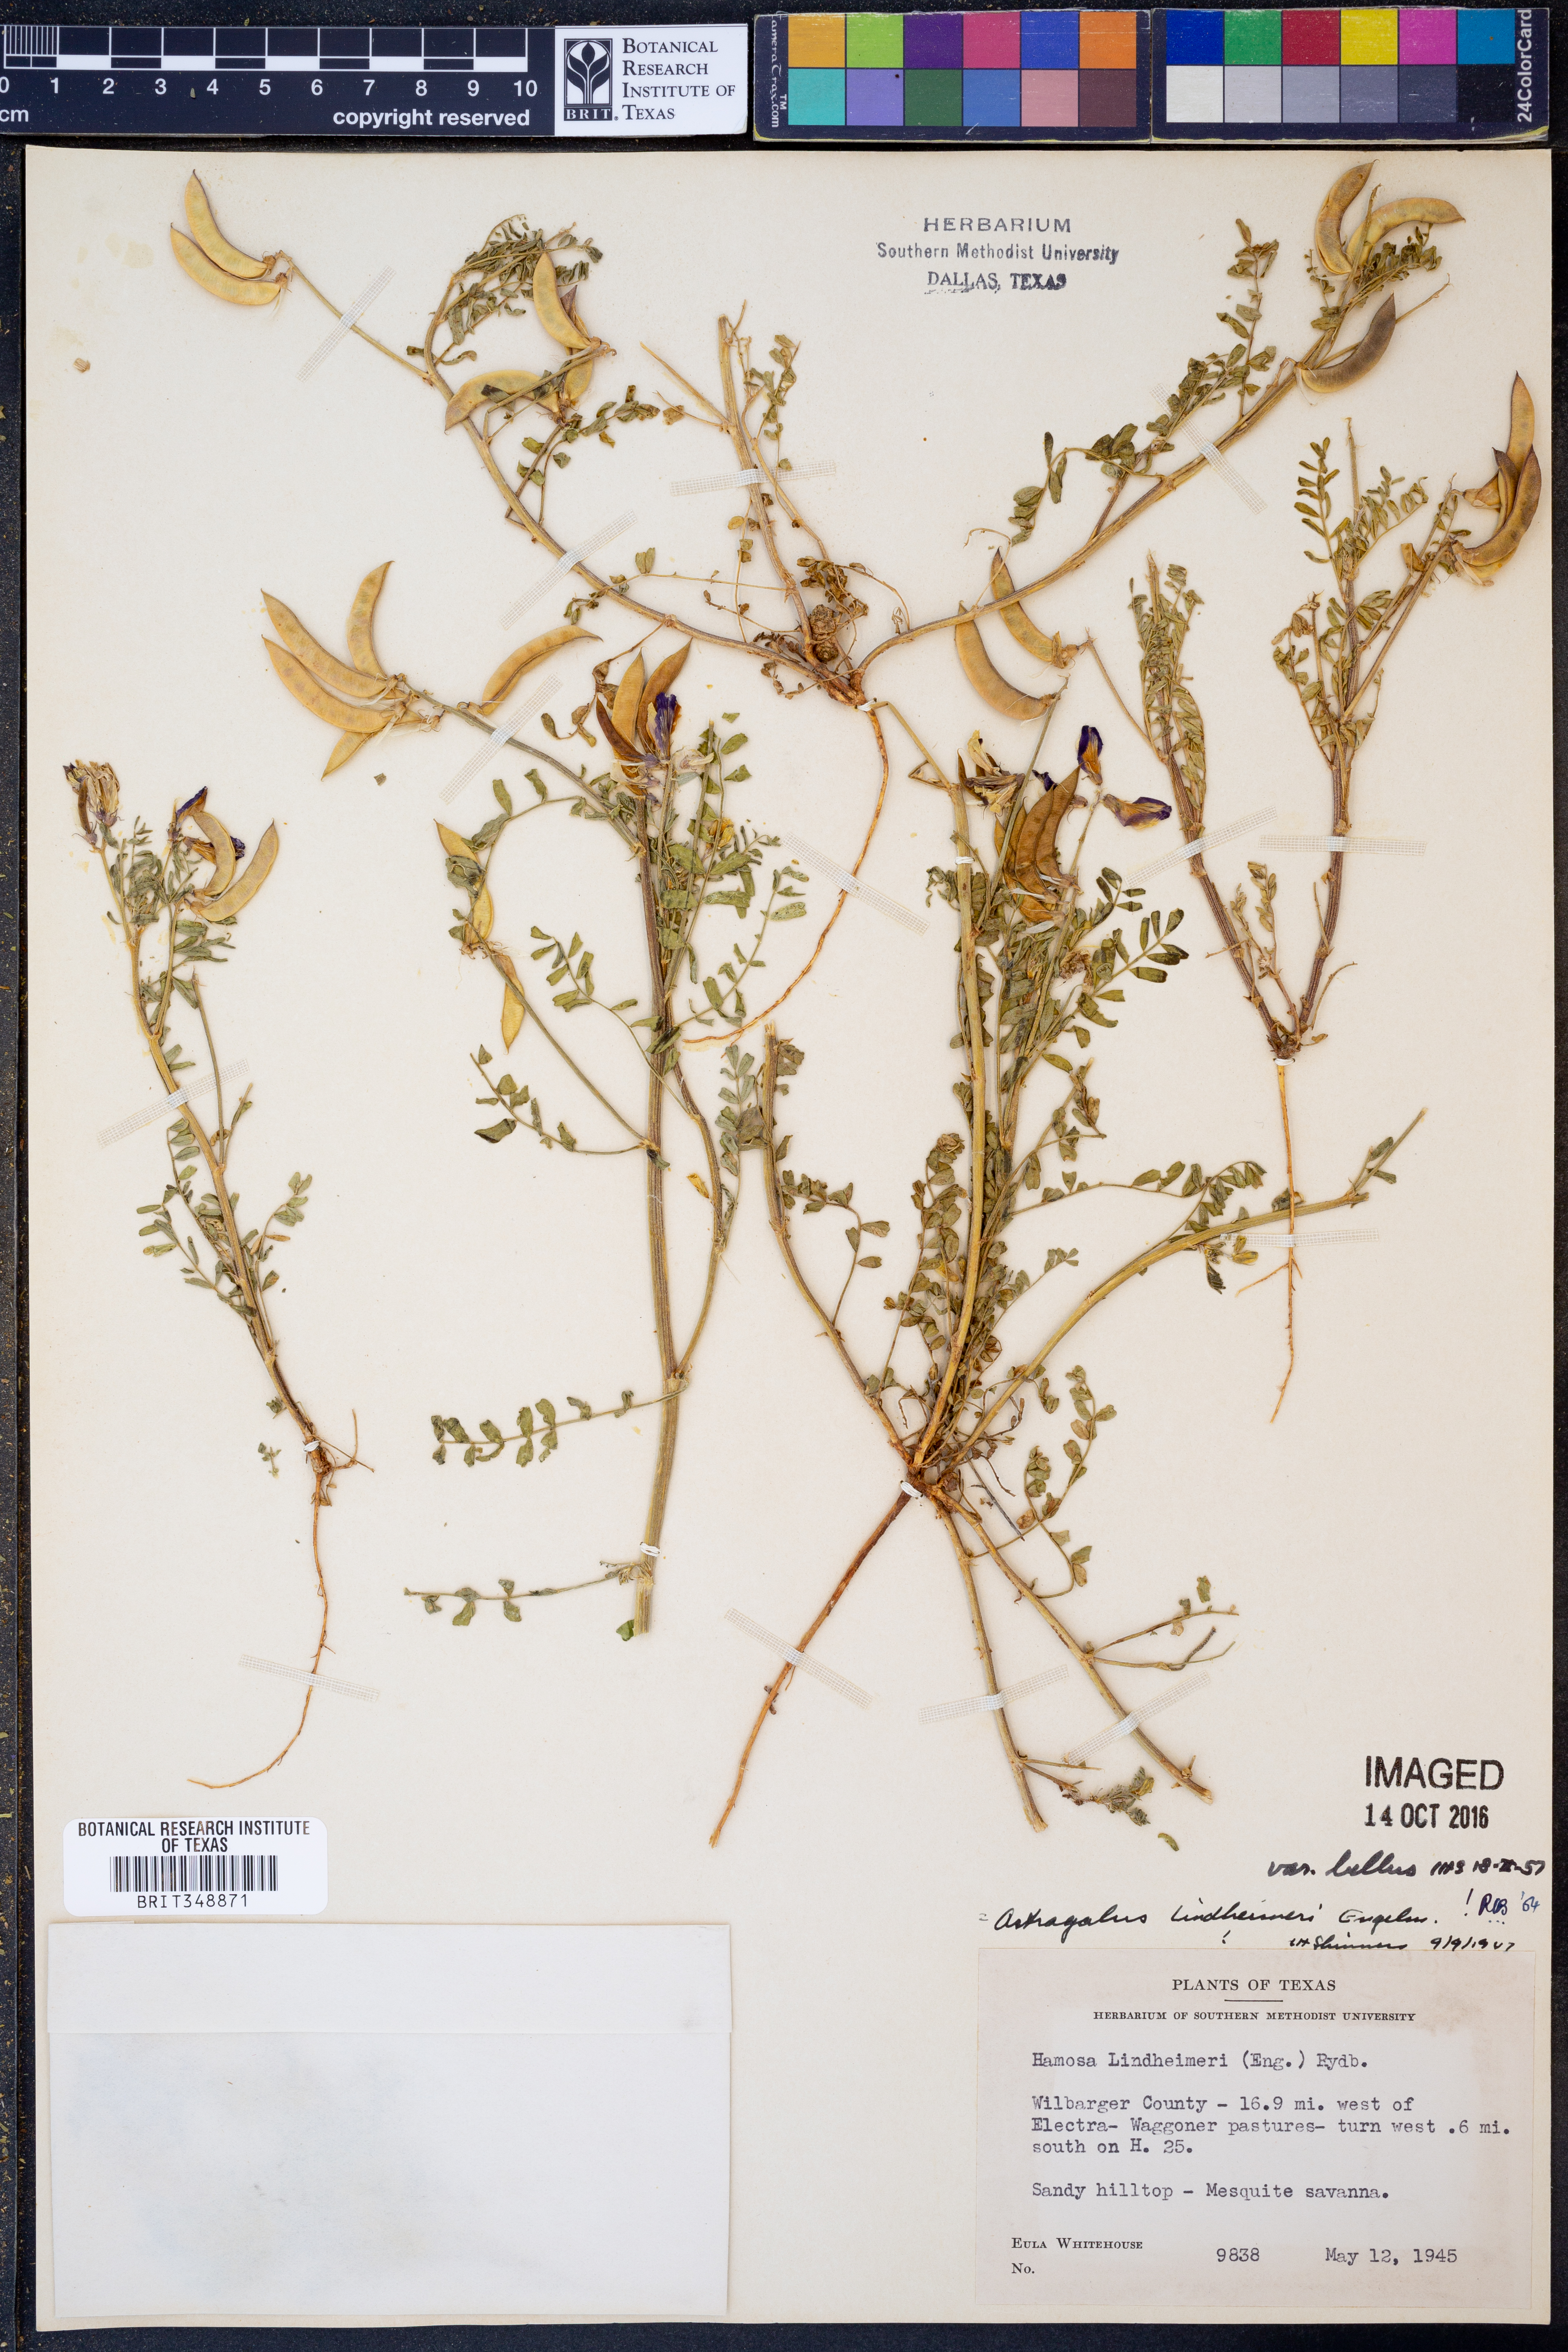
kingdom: Plantae
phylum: Tracheophyta
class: Magnoliopsida
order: Fabales
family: Fabaceae
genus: Astragalus
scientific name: Astragalus lindheimeri
